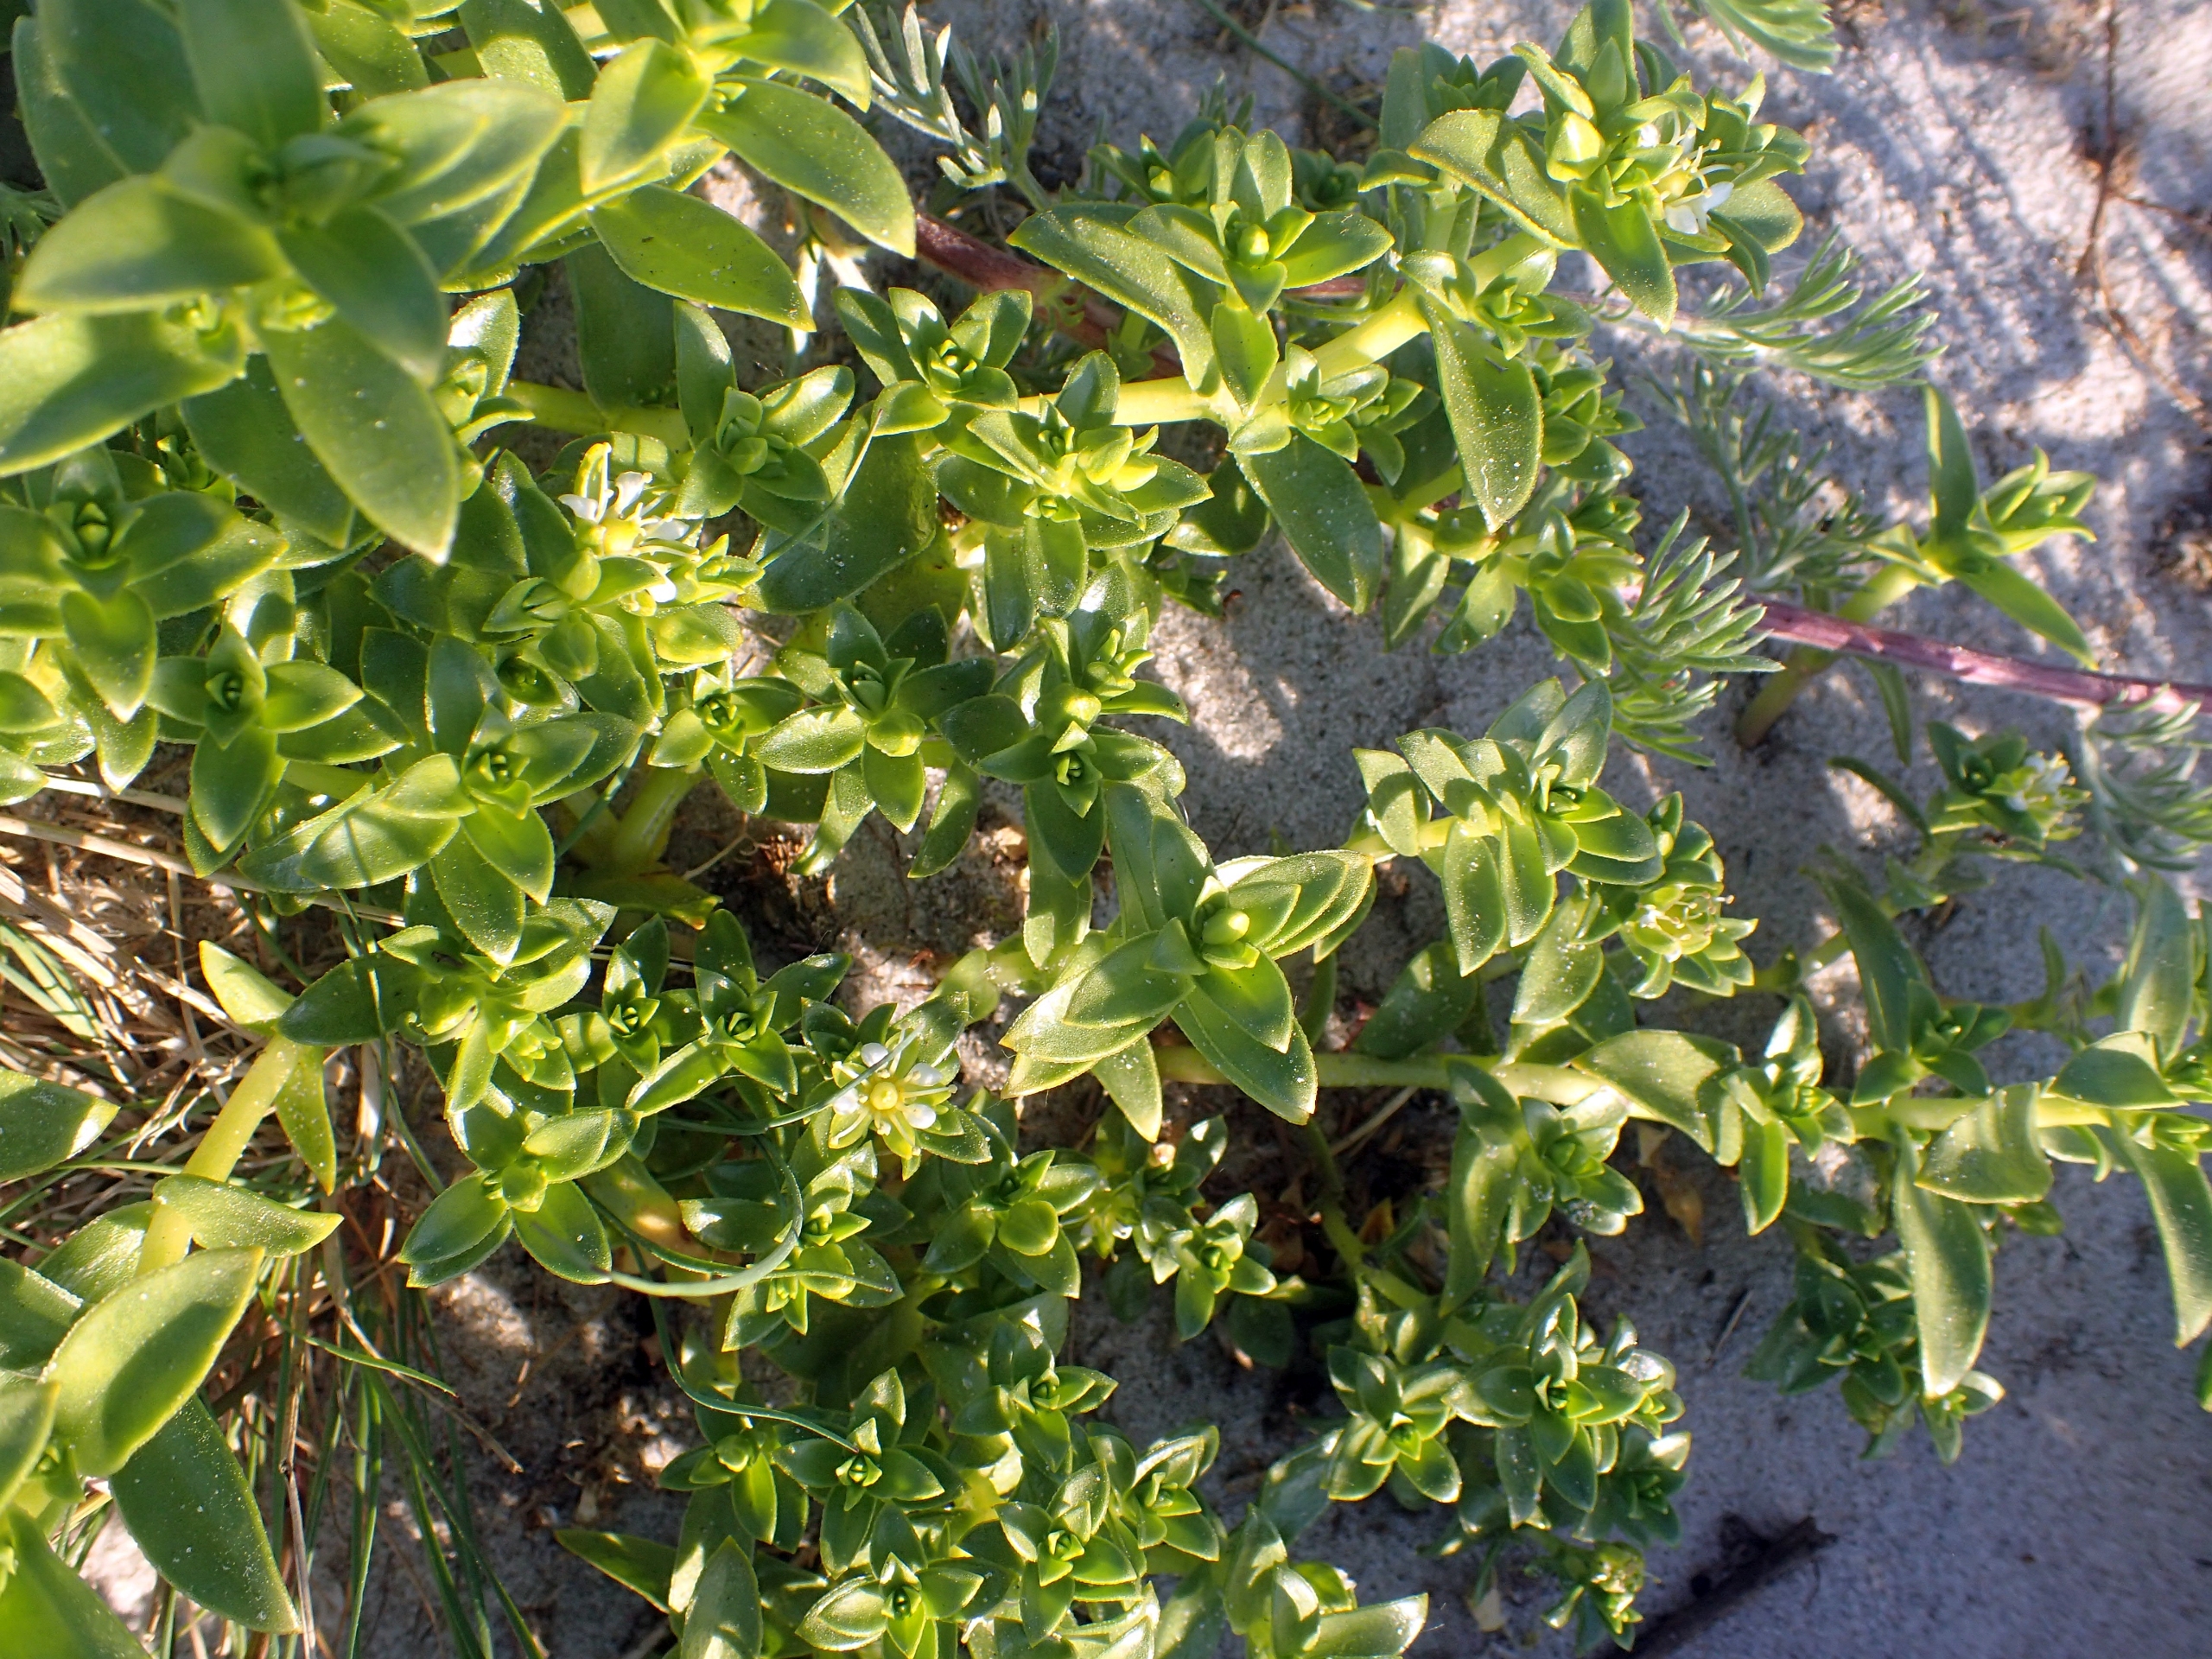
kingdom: Plantae
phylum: Tracheophyta
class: Magnoliopsida
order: Caryophyllales
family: Caryophyllaceae
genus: Honckenya
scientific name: Honckenya peploides
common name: Strandarve
